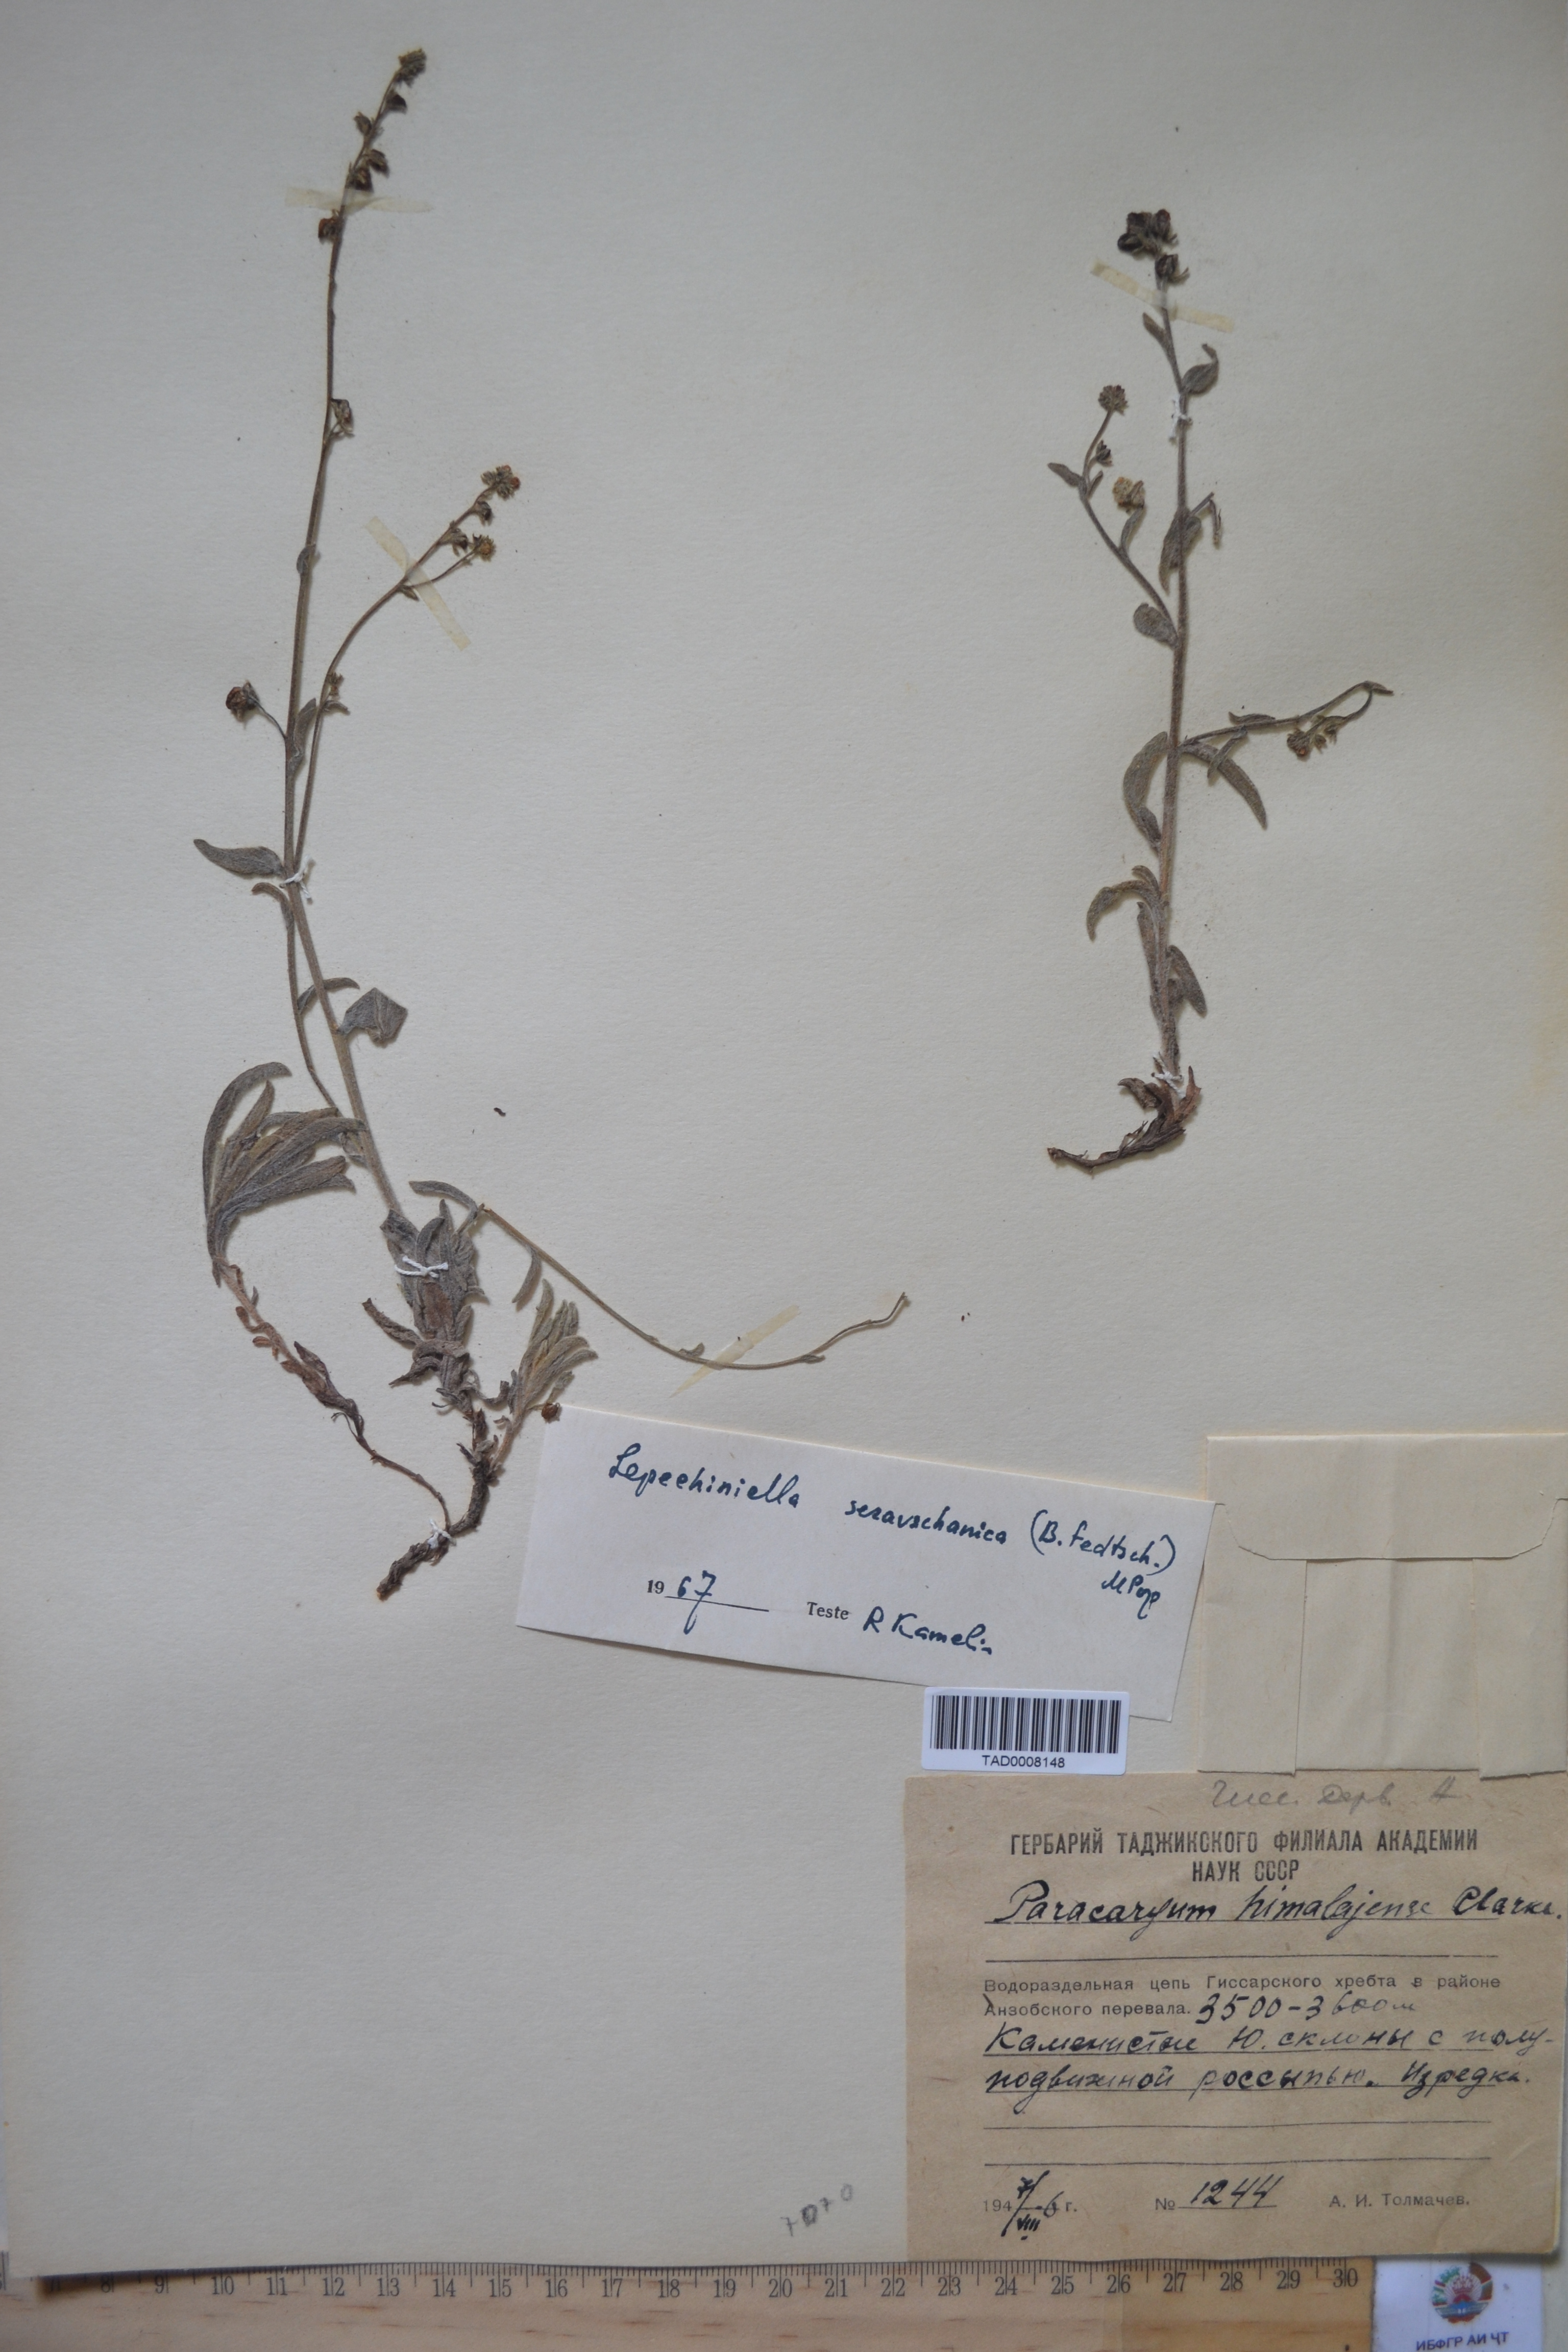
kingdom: Plantae
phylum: Tracheophyta
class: Magnoliopsida
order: Boraginales
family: Boraginaceae
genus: Paracaryum
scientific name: Paracaryum himalayense
